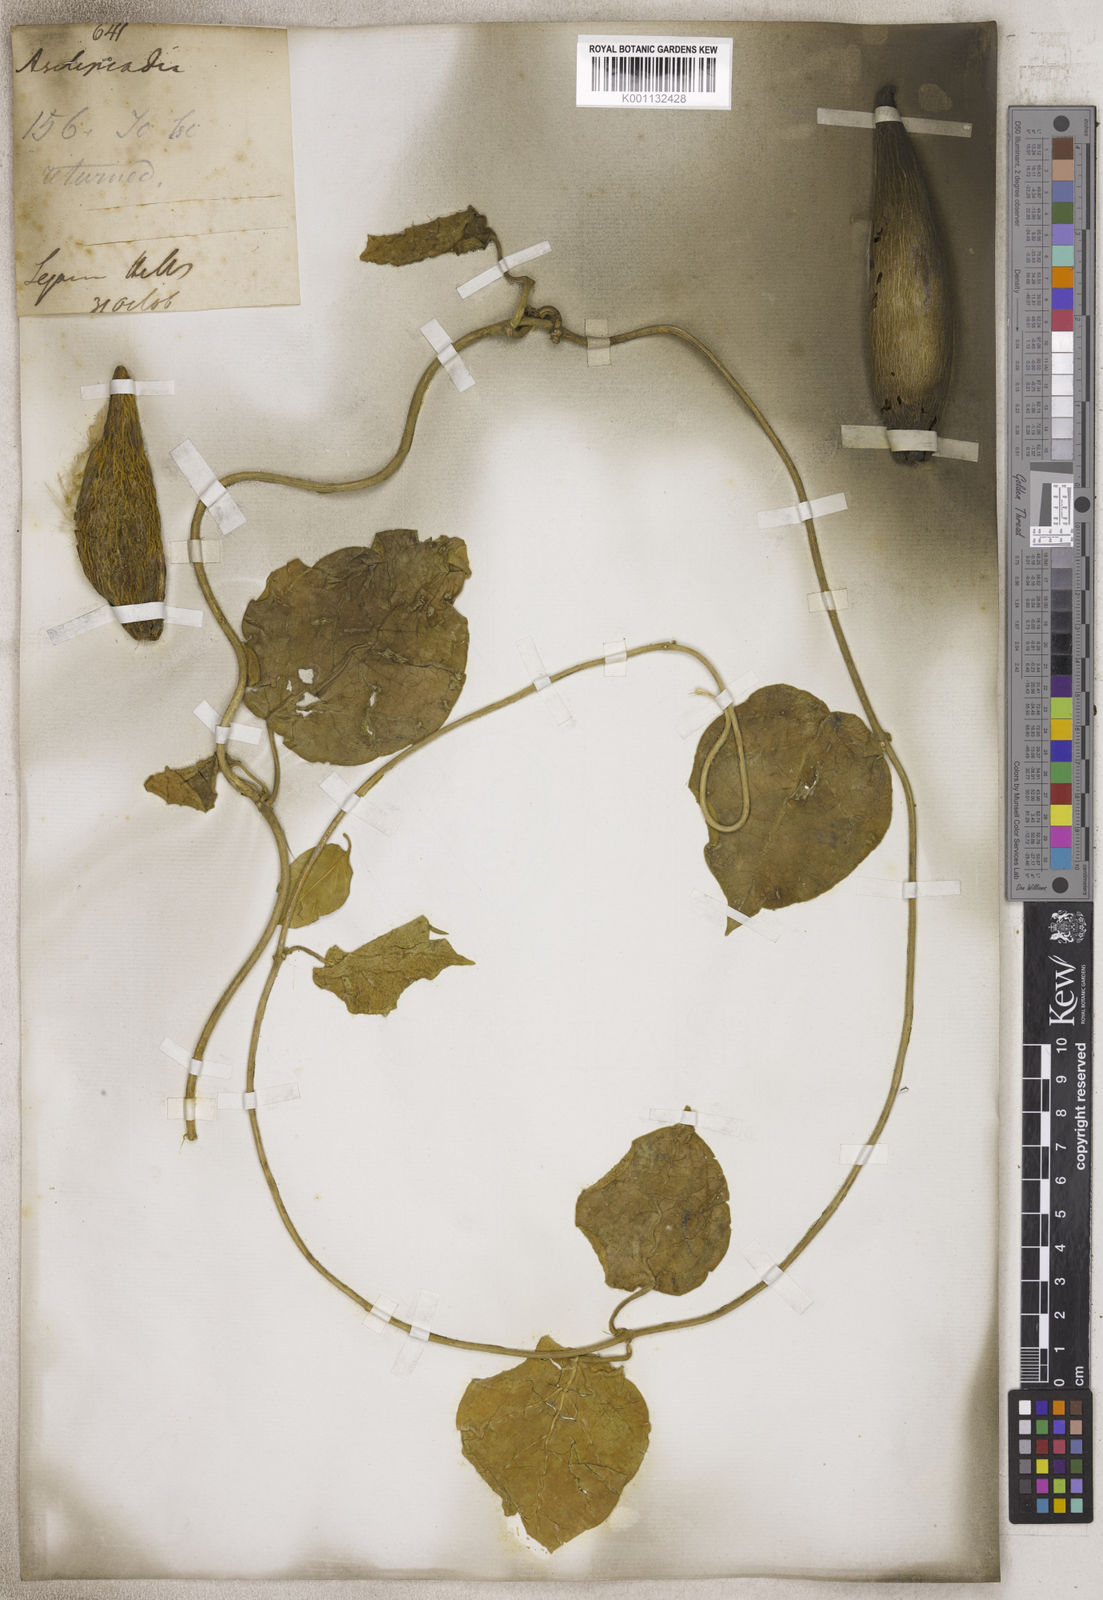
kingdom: Plantae
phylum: Tracheophyta
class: Magnoliopsida
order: Gentianales
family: Asclepiadaceae
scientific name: Asclepiadaceae
